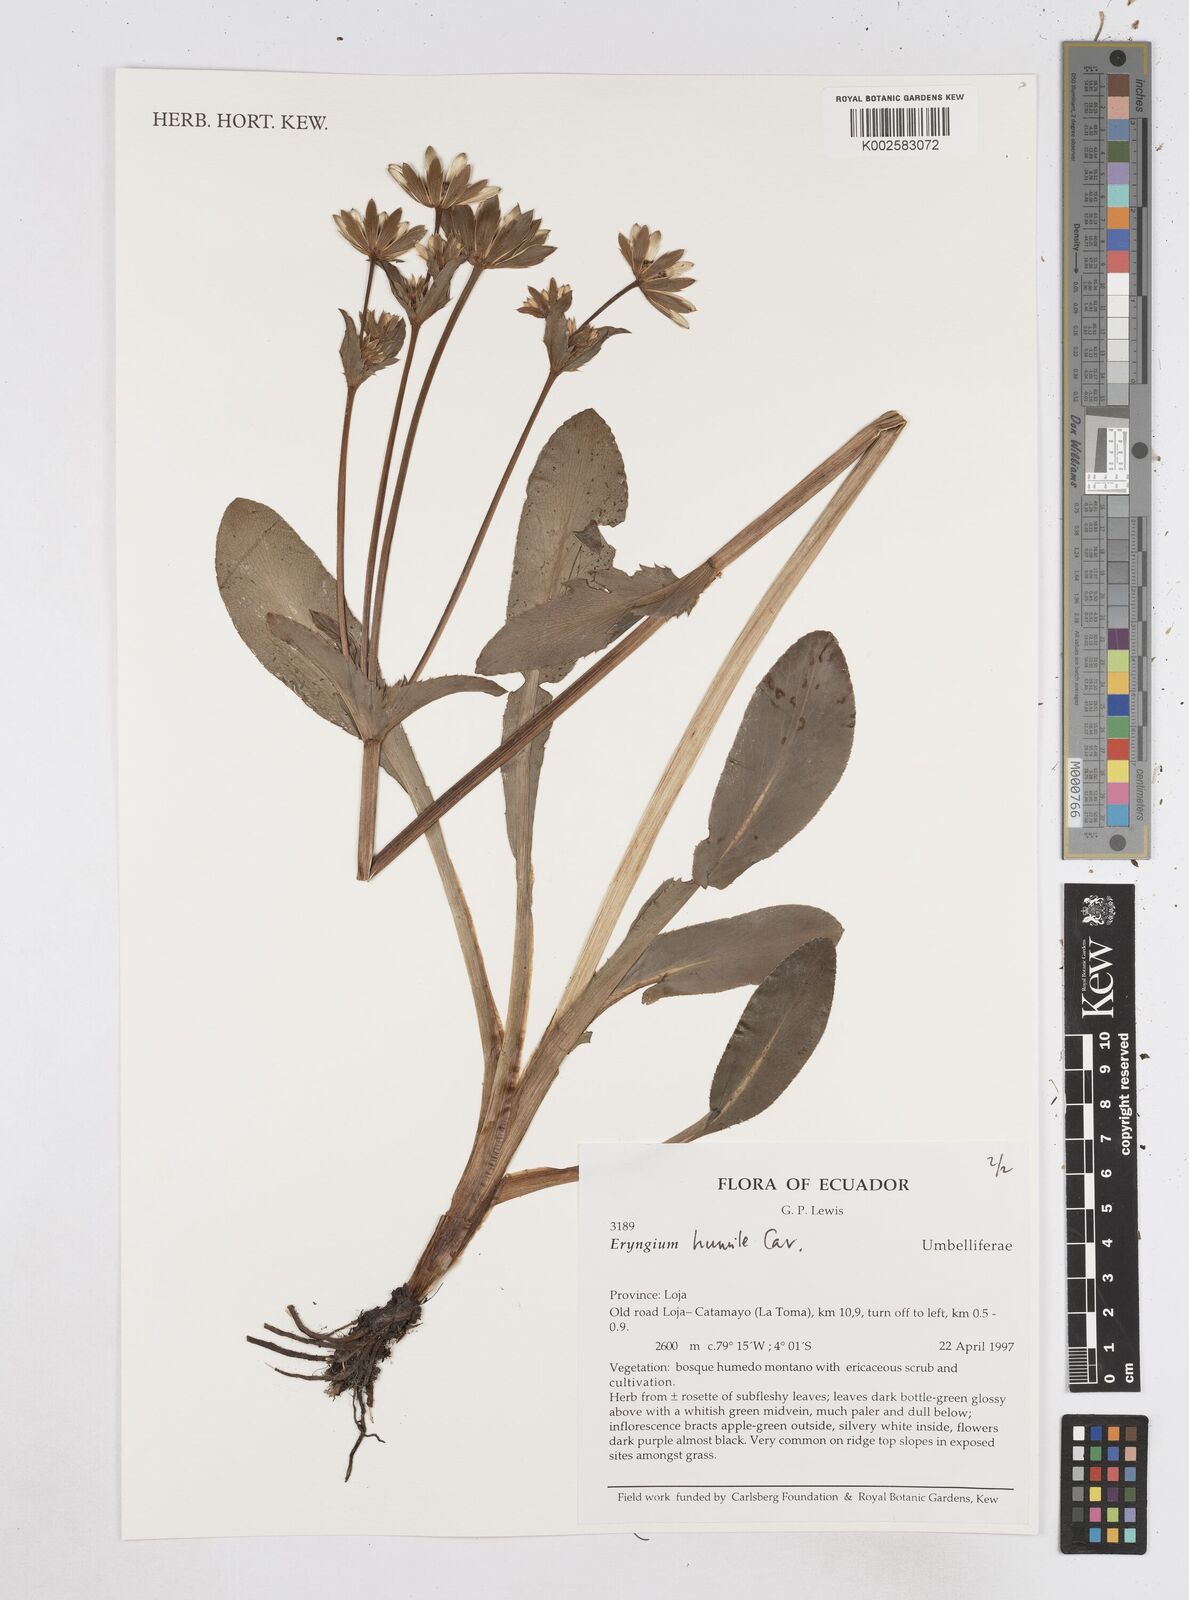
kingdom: Plantae
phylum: Tracheophyta
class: Magnoliopsida
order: Apiales
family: Apiaceae
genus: Eryngium
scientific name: Eryngium humile
